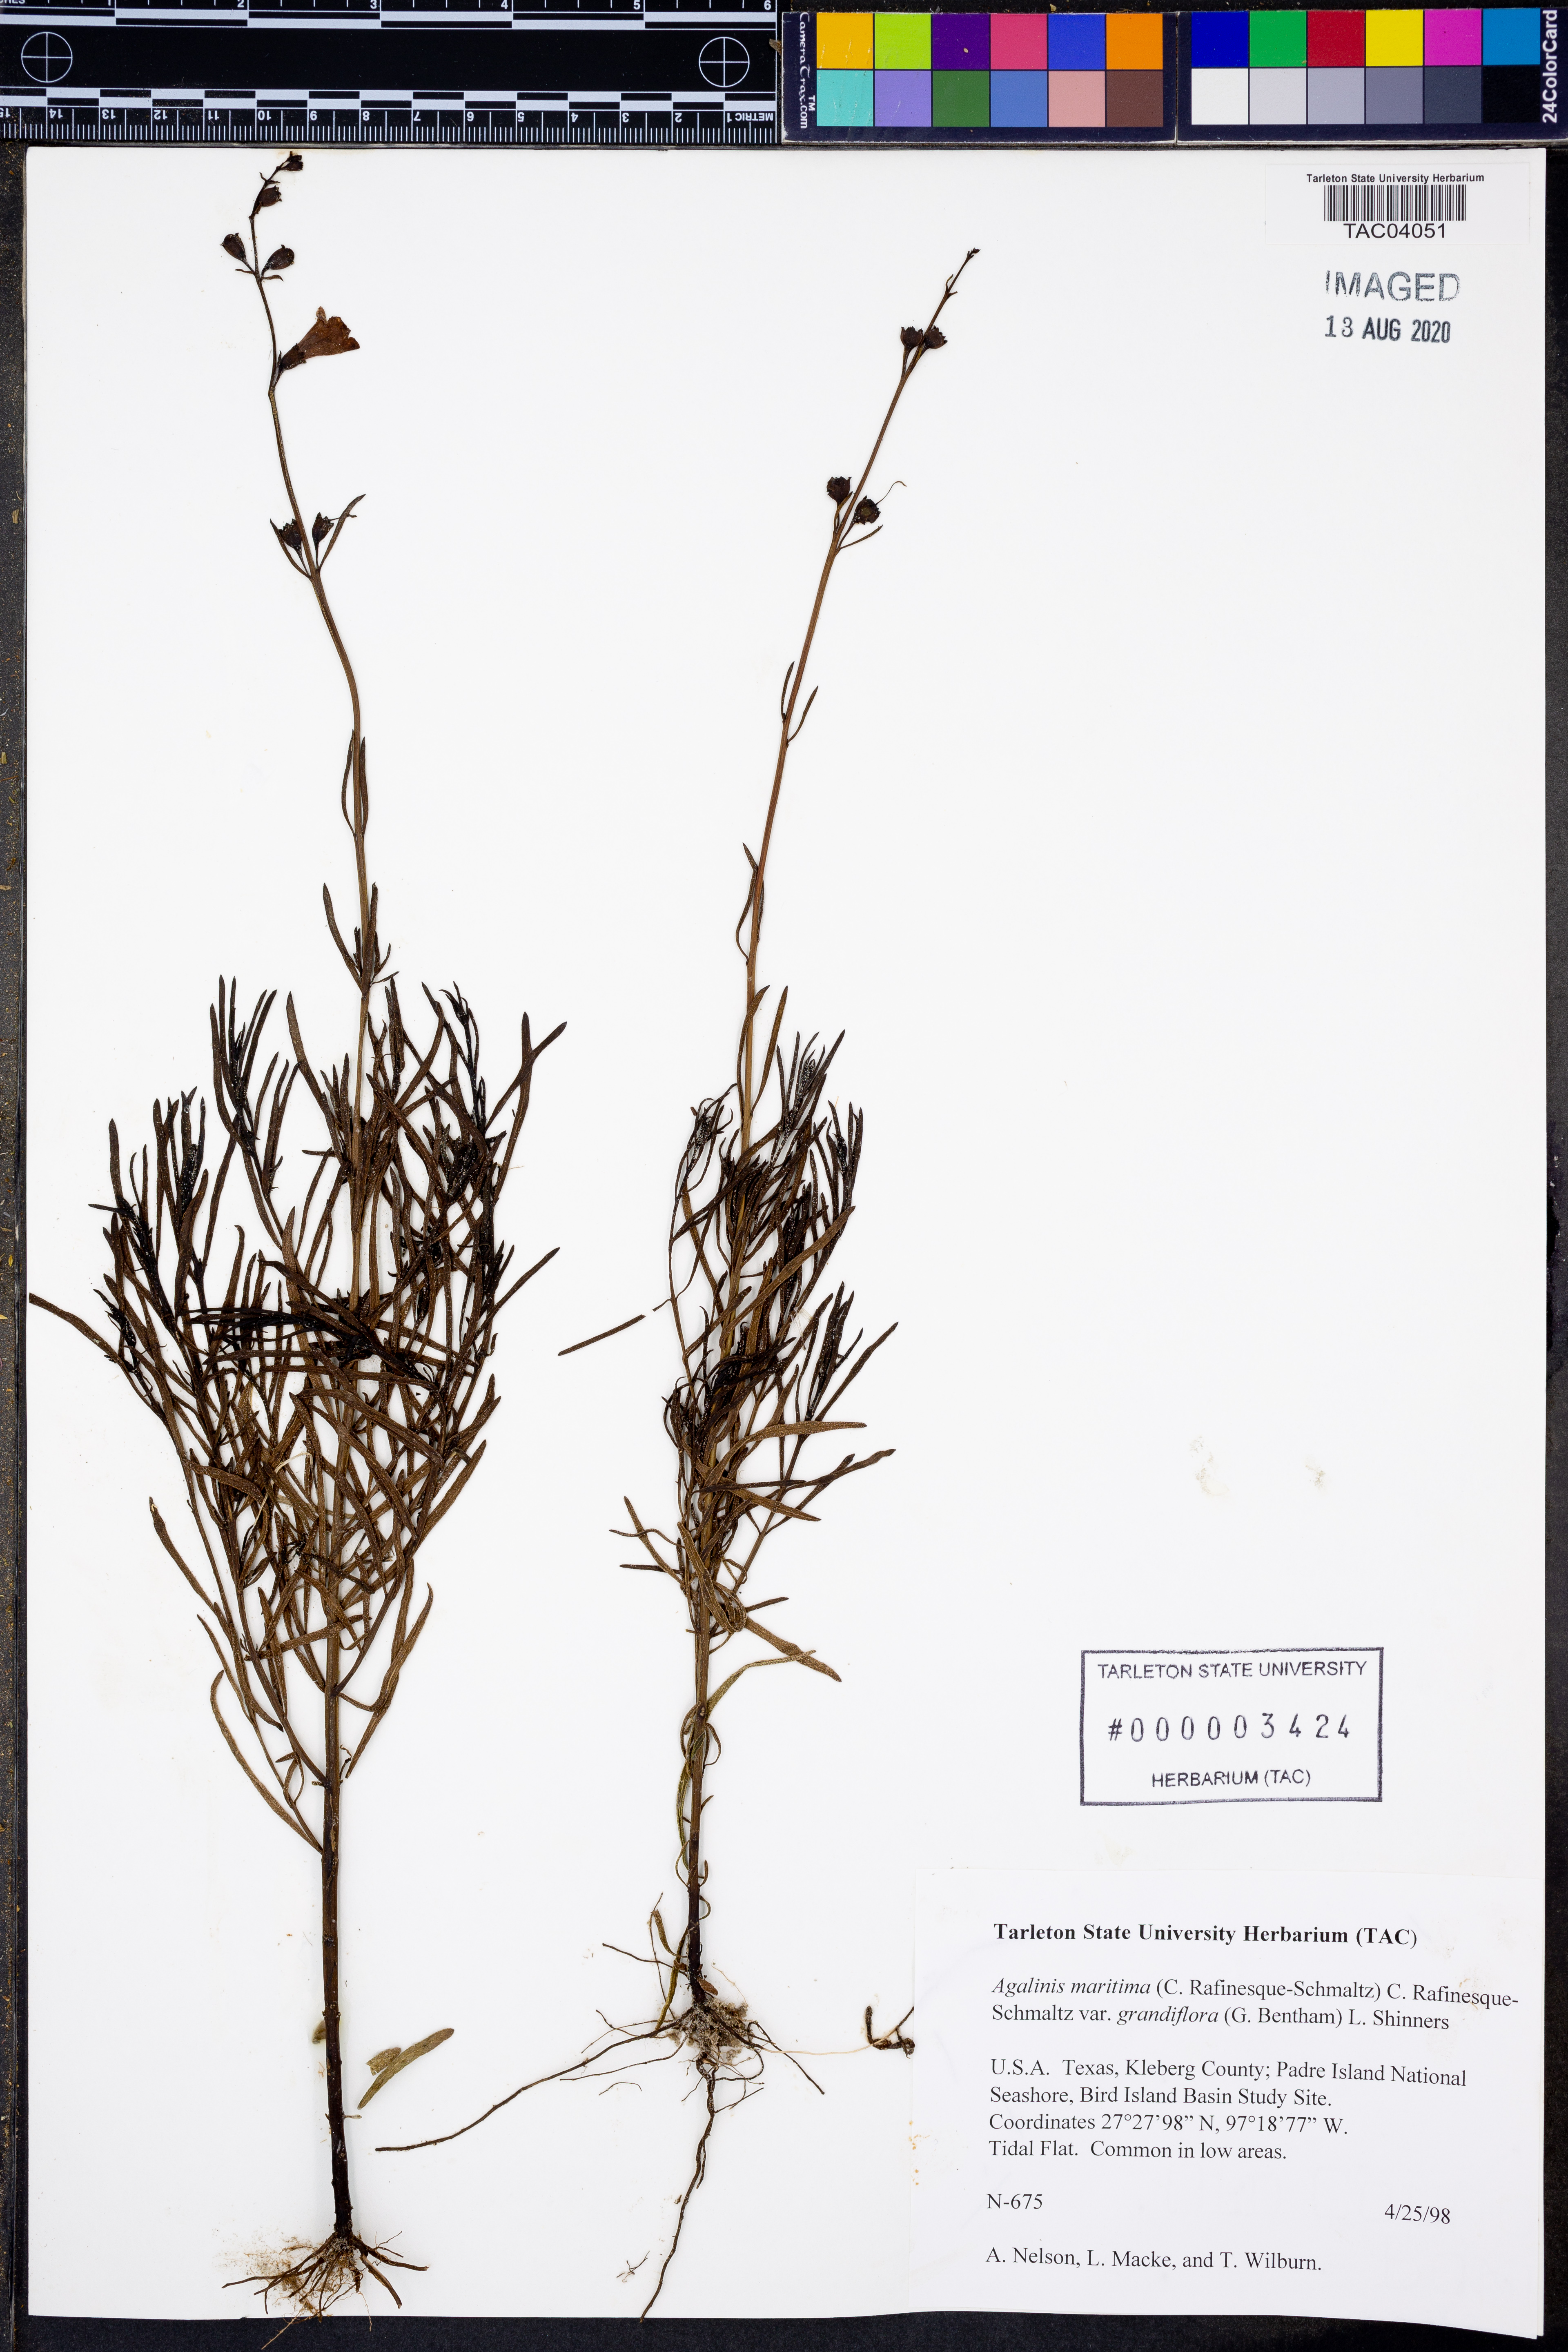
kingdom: Plantae
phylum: Tracheophyta
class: Magnoliopsida
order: Lamiales
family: Orobanchaceae
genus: Agalinis
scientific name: Agalinis harperi
